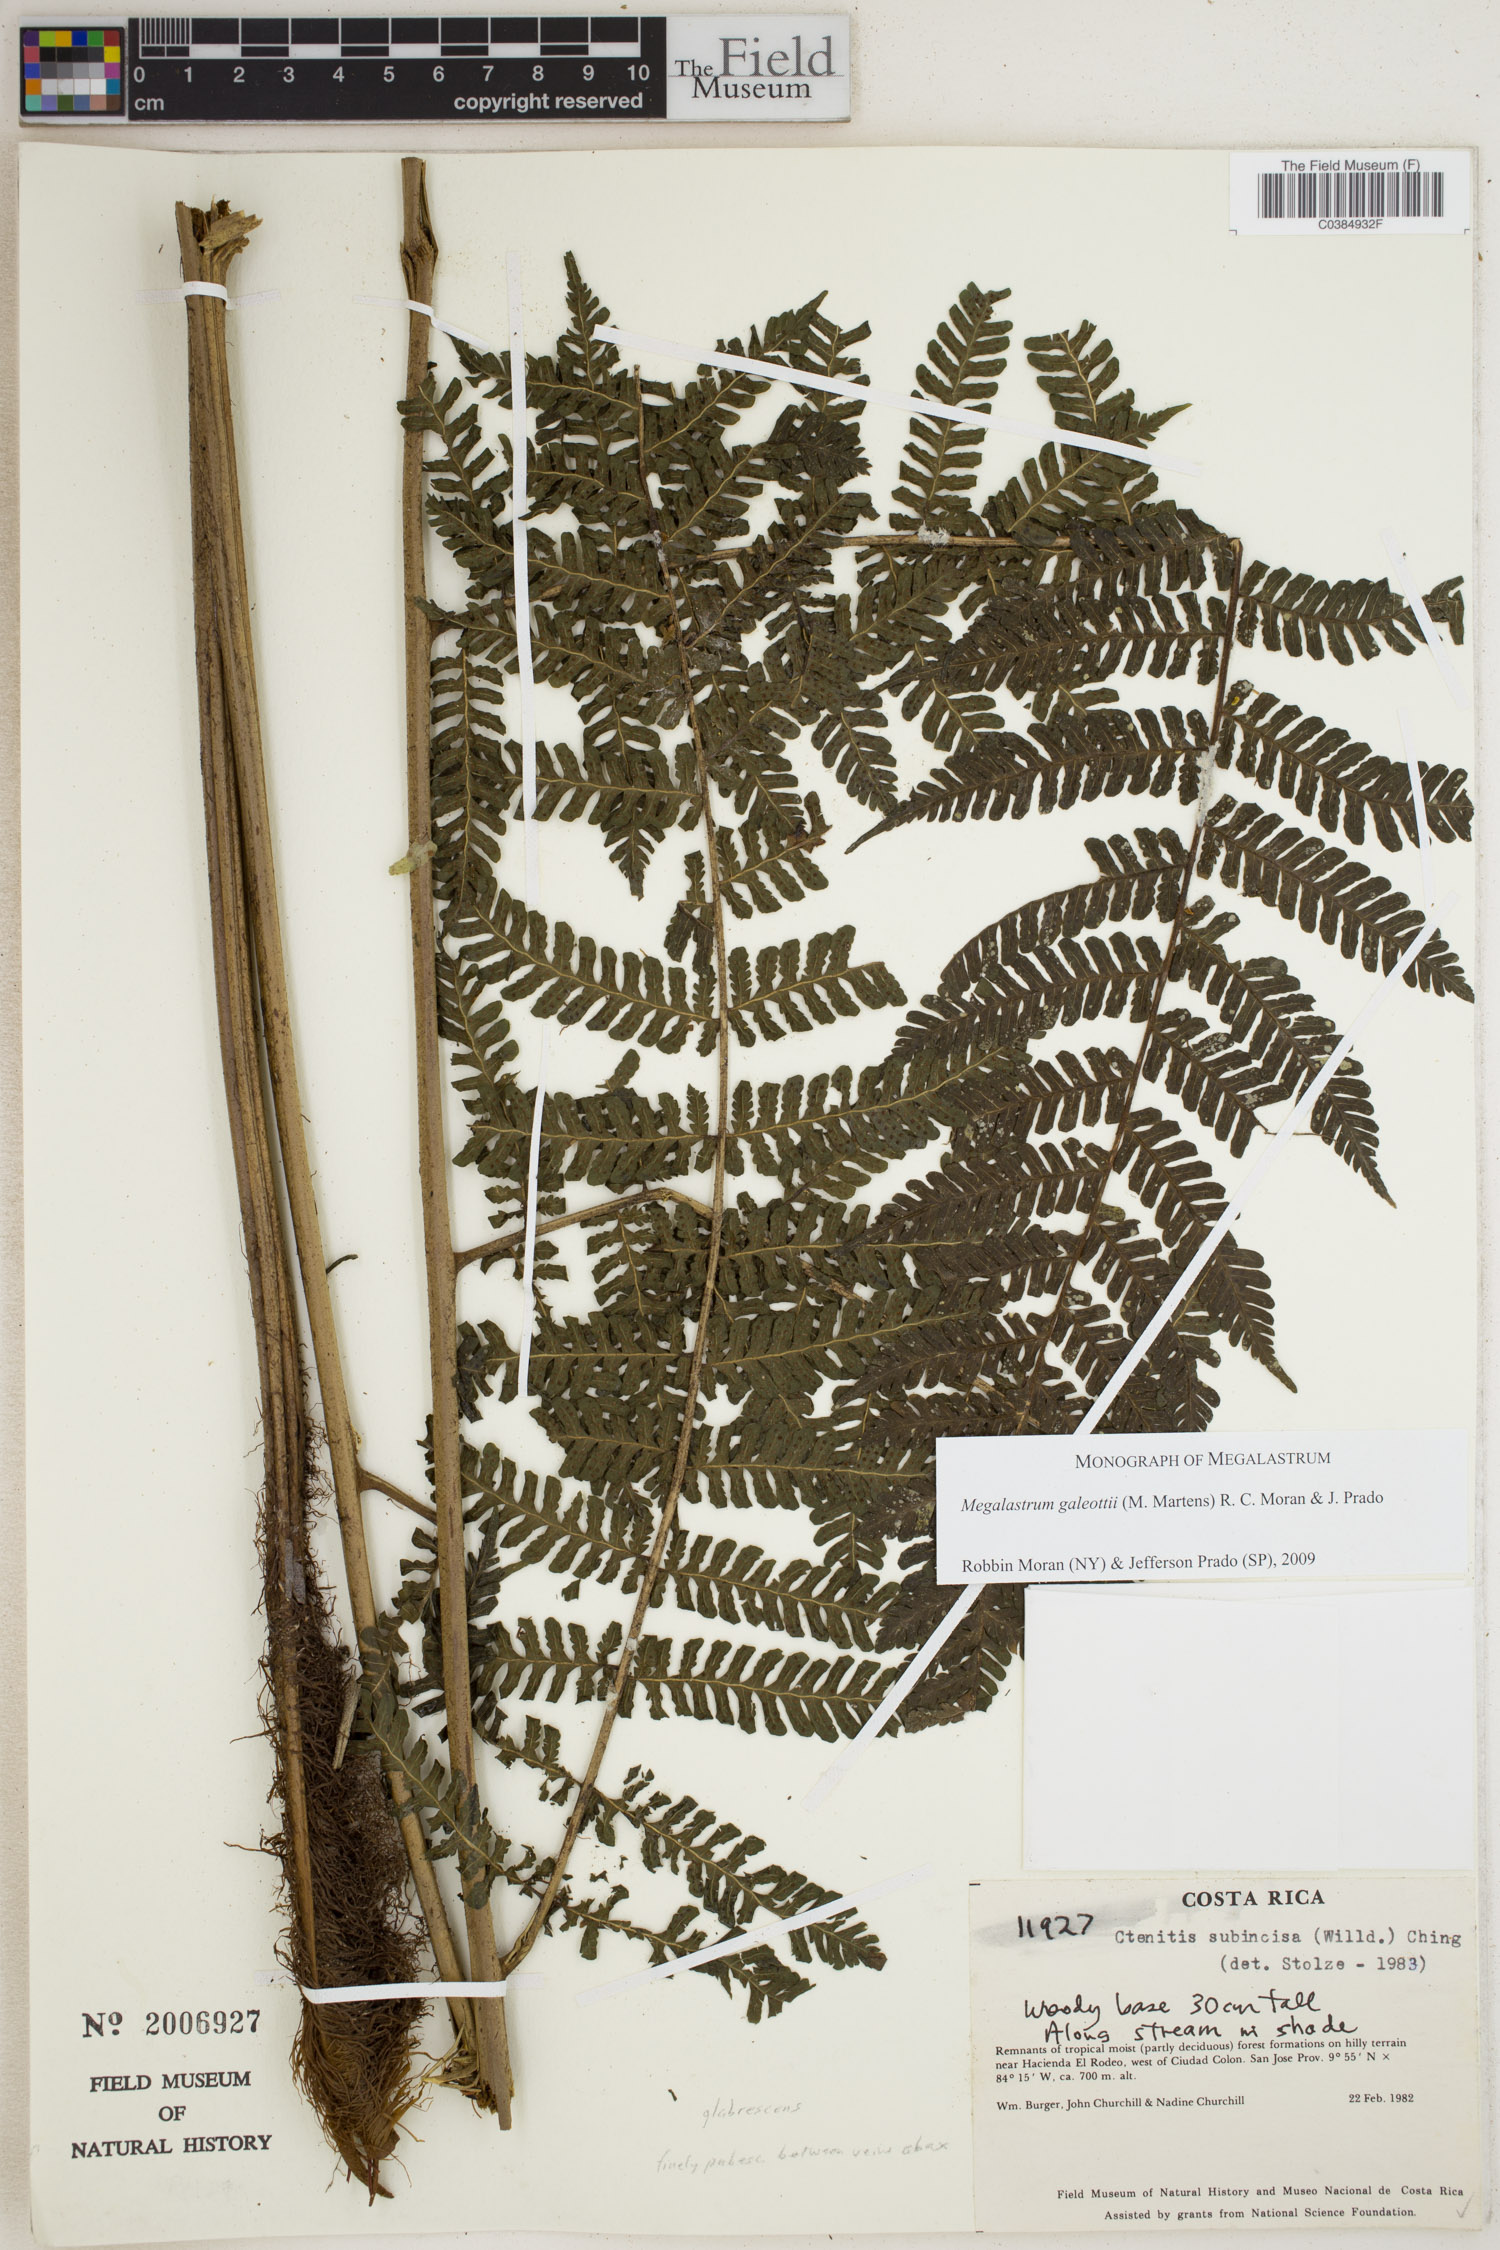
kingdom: Plantae
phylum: Tracheophyta
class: Polypodiopsida
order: Polypodiales
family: Dryopteridaceae
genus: Megalastrum
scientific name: Megalastrum galeottii
